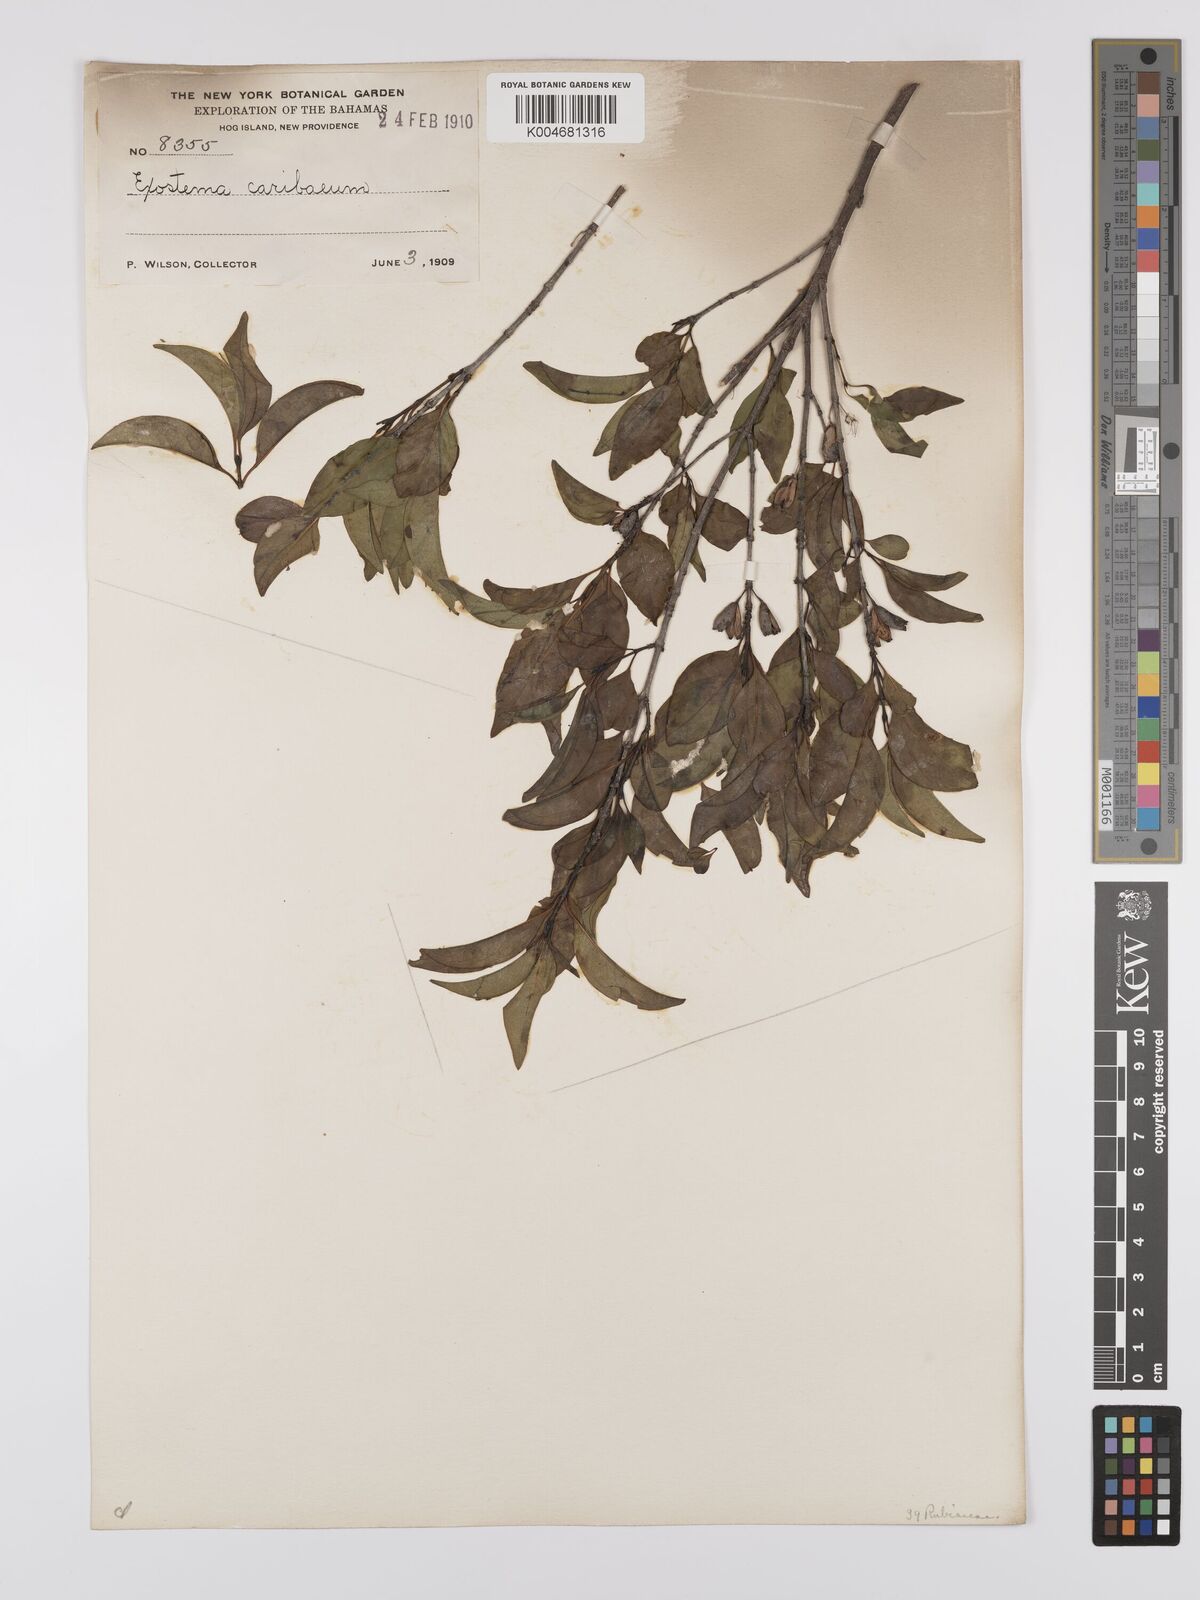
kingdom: Plantae
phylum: Tracheophyta
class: Magnoliopsida
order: Gentianales
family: Rubiaceae
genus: Exostema
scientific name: Exostema caribaeum
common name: Princewood
